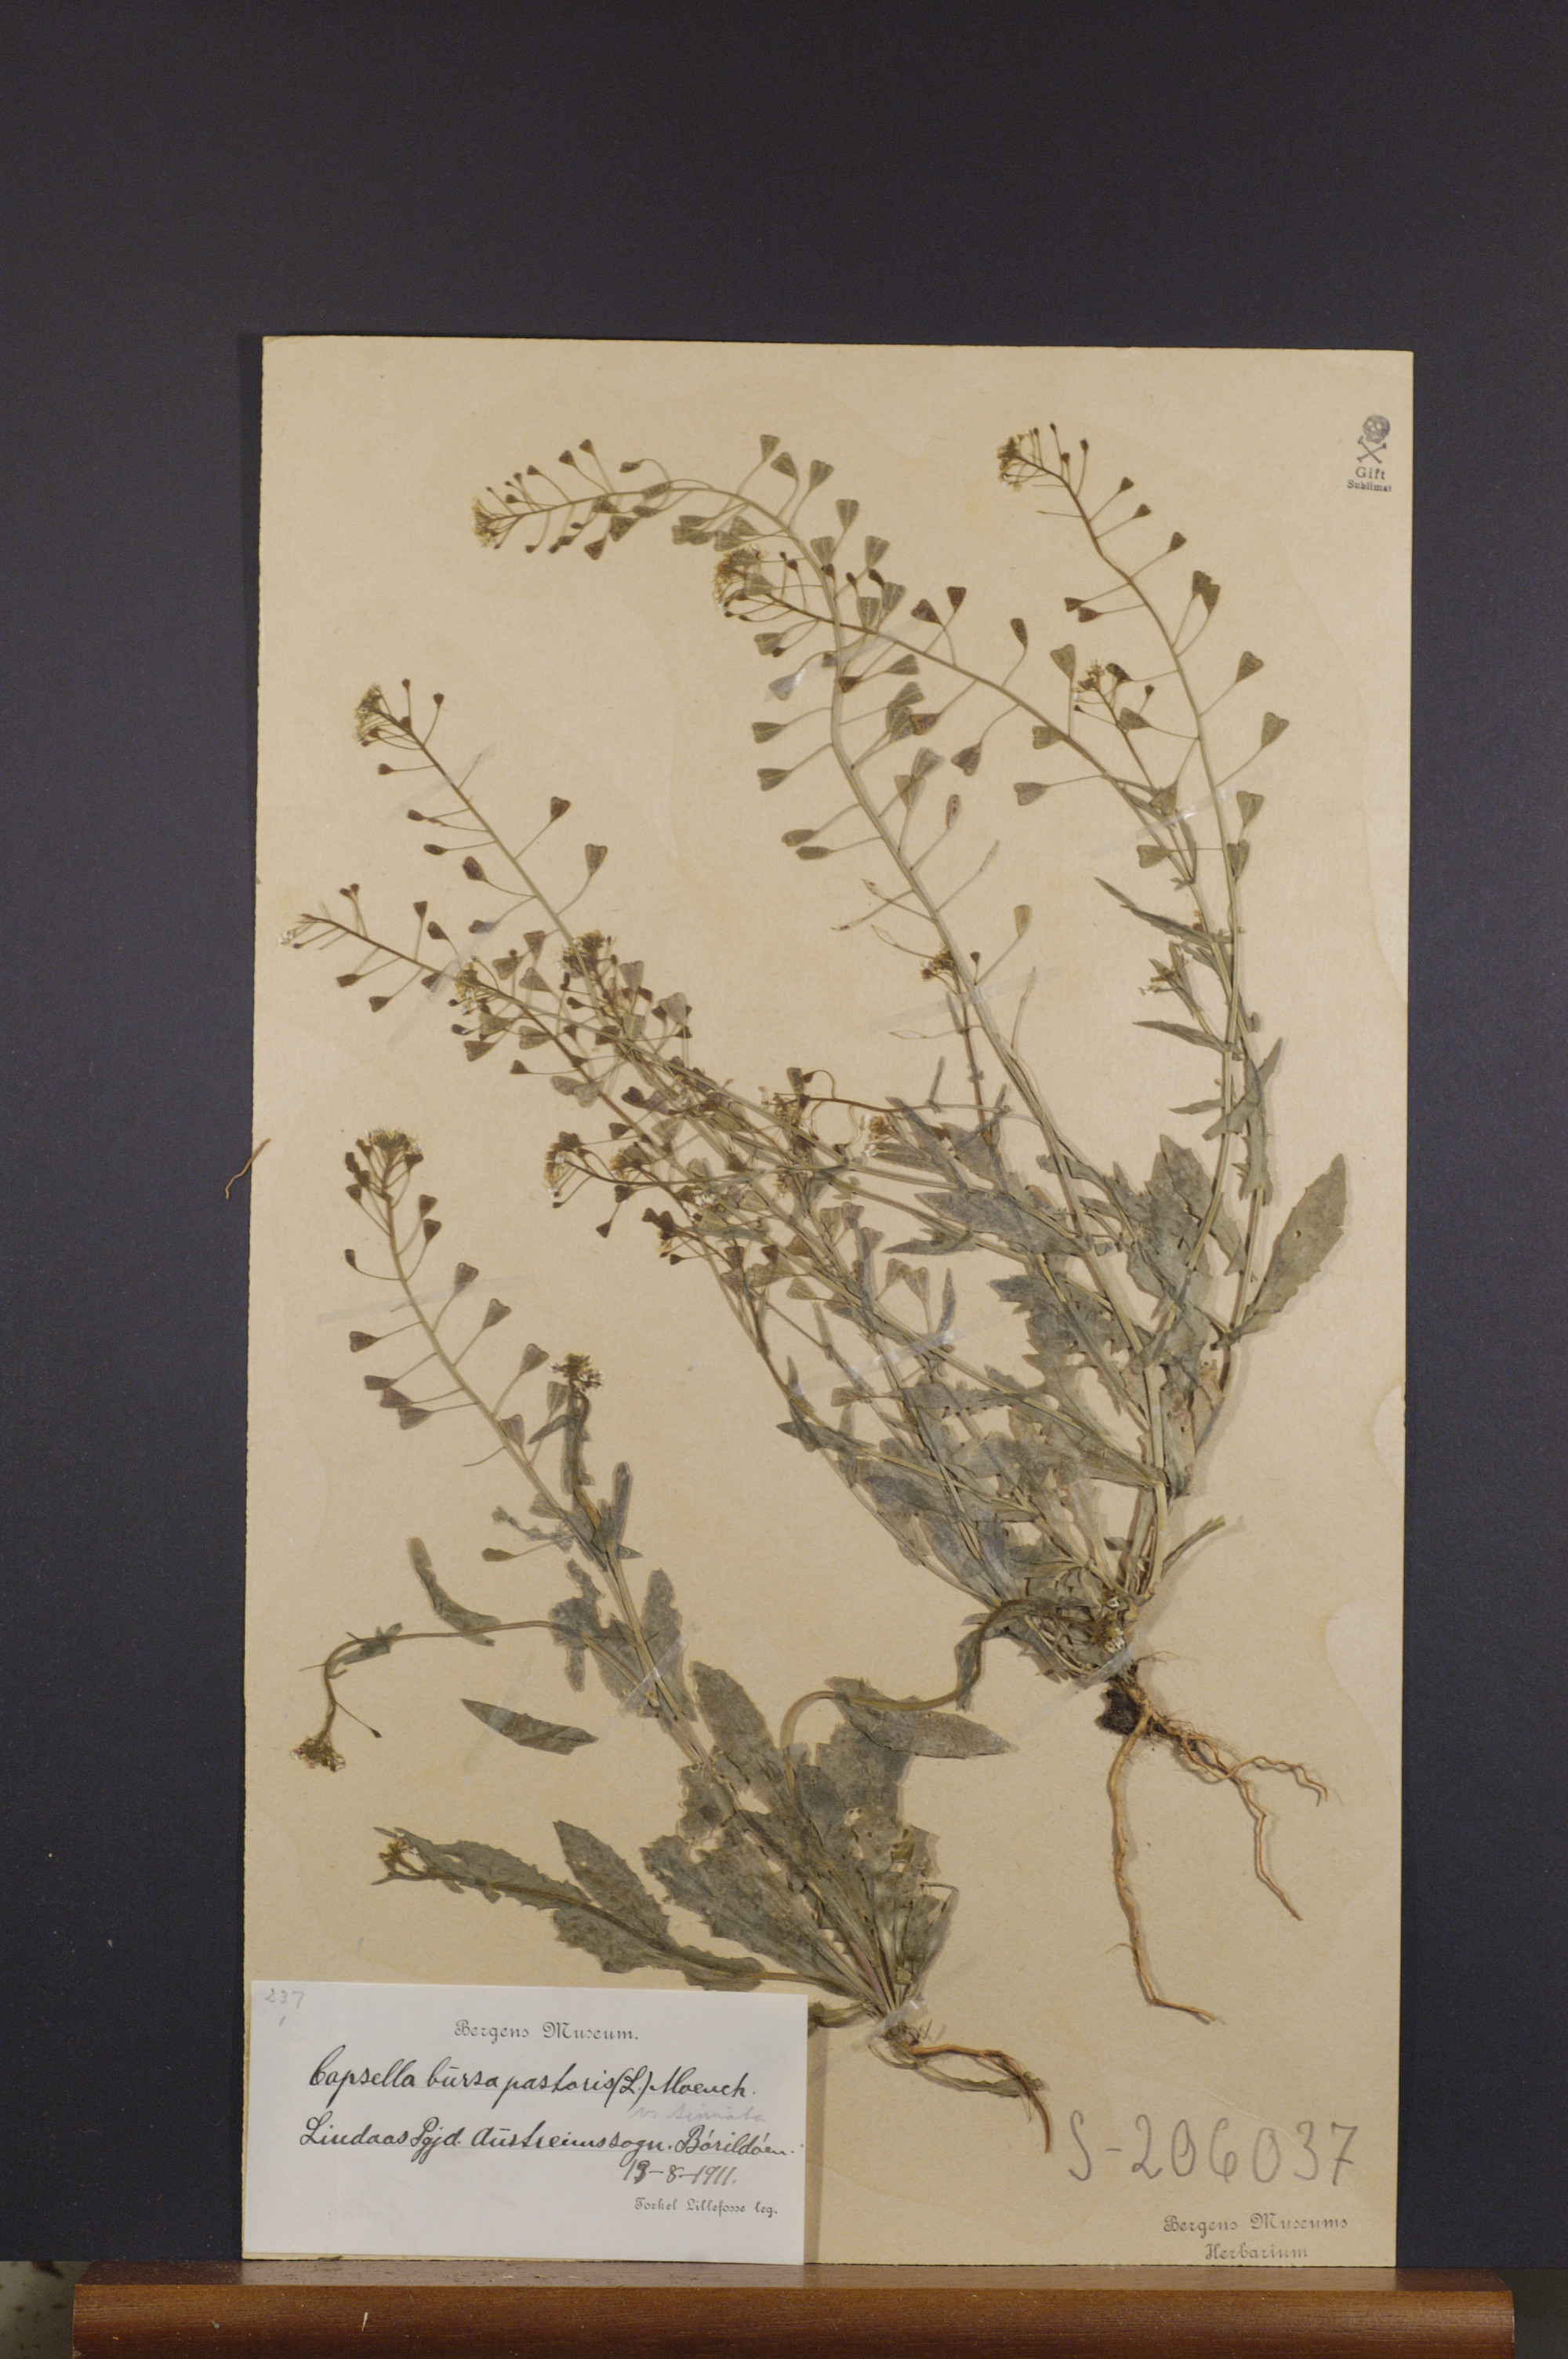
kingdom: Plantae
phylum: Tracheophyta
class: Magnoliopsida
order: Brassicales
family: Brassicaceae
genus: Capsella
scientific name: Capsella bursa-pastoris
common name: Shepherd's purse
